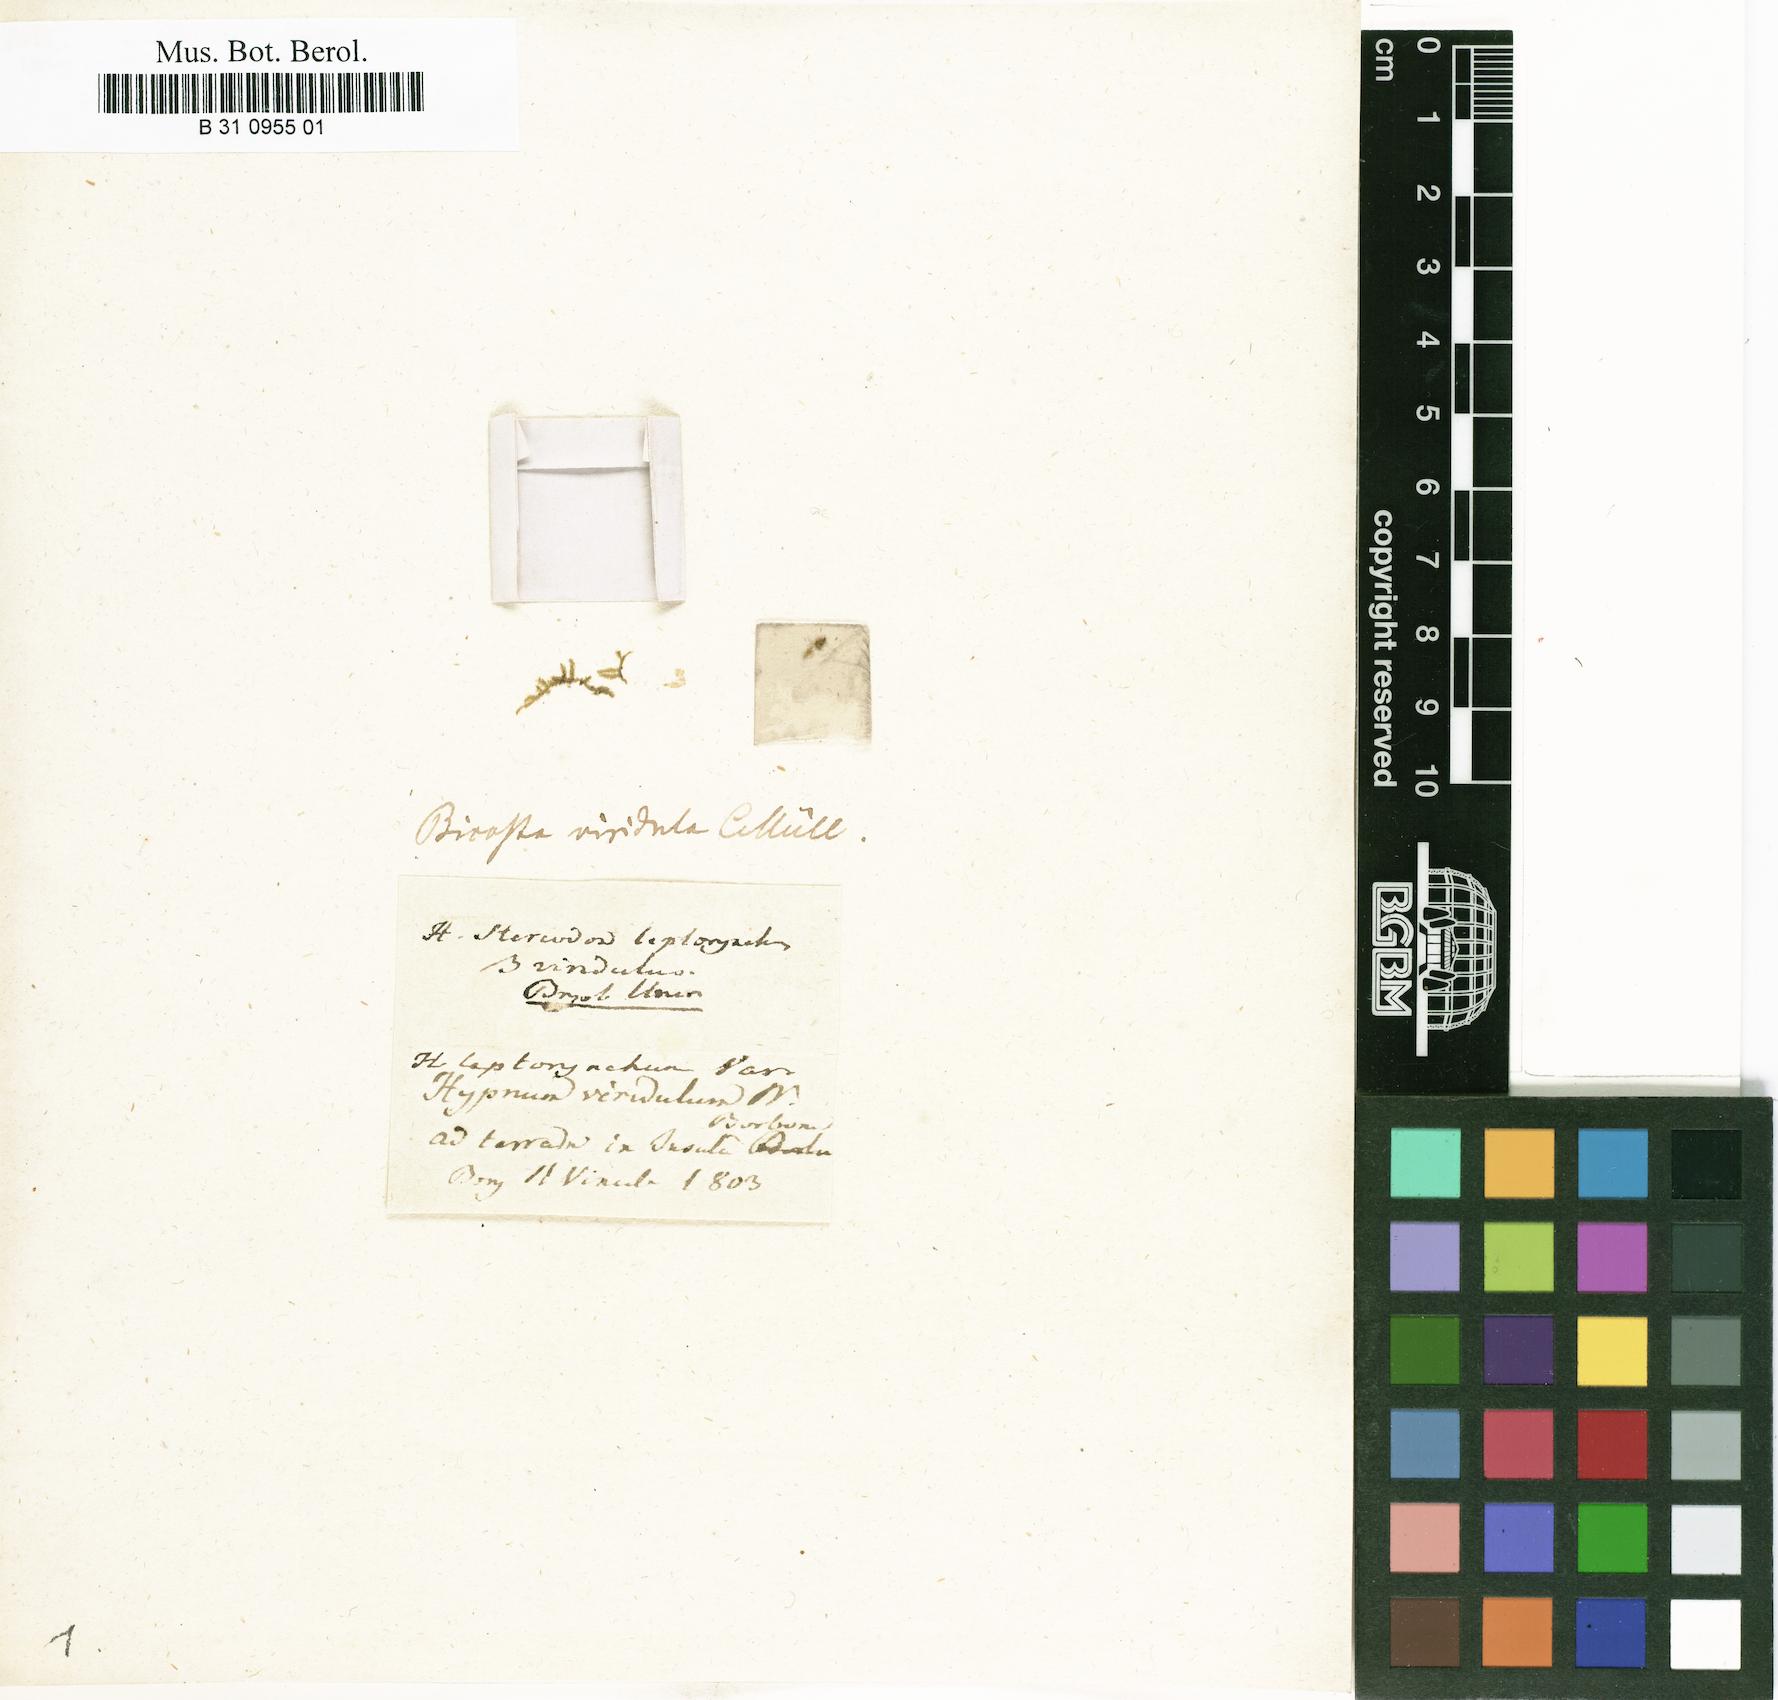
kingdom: Plantae
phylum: Bryophyta
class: Bryopsida
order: Hypnales
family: Sematophyllaceae
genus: Rhaphidorrhynchium
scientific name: Rhaphidorrhynchium amoenum
